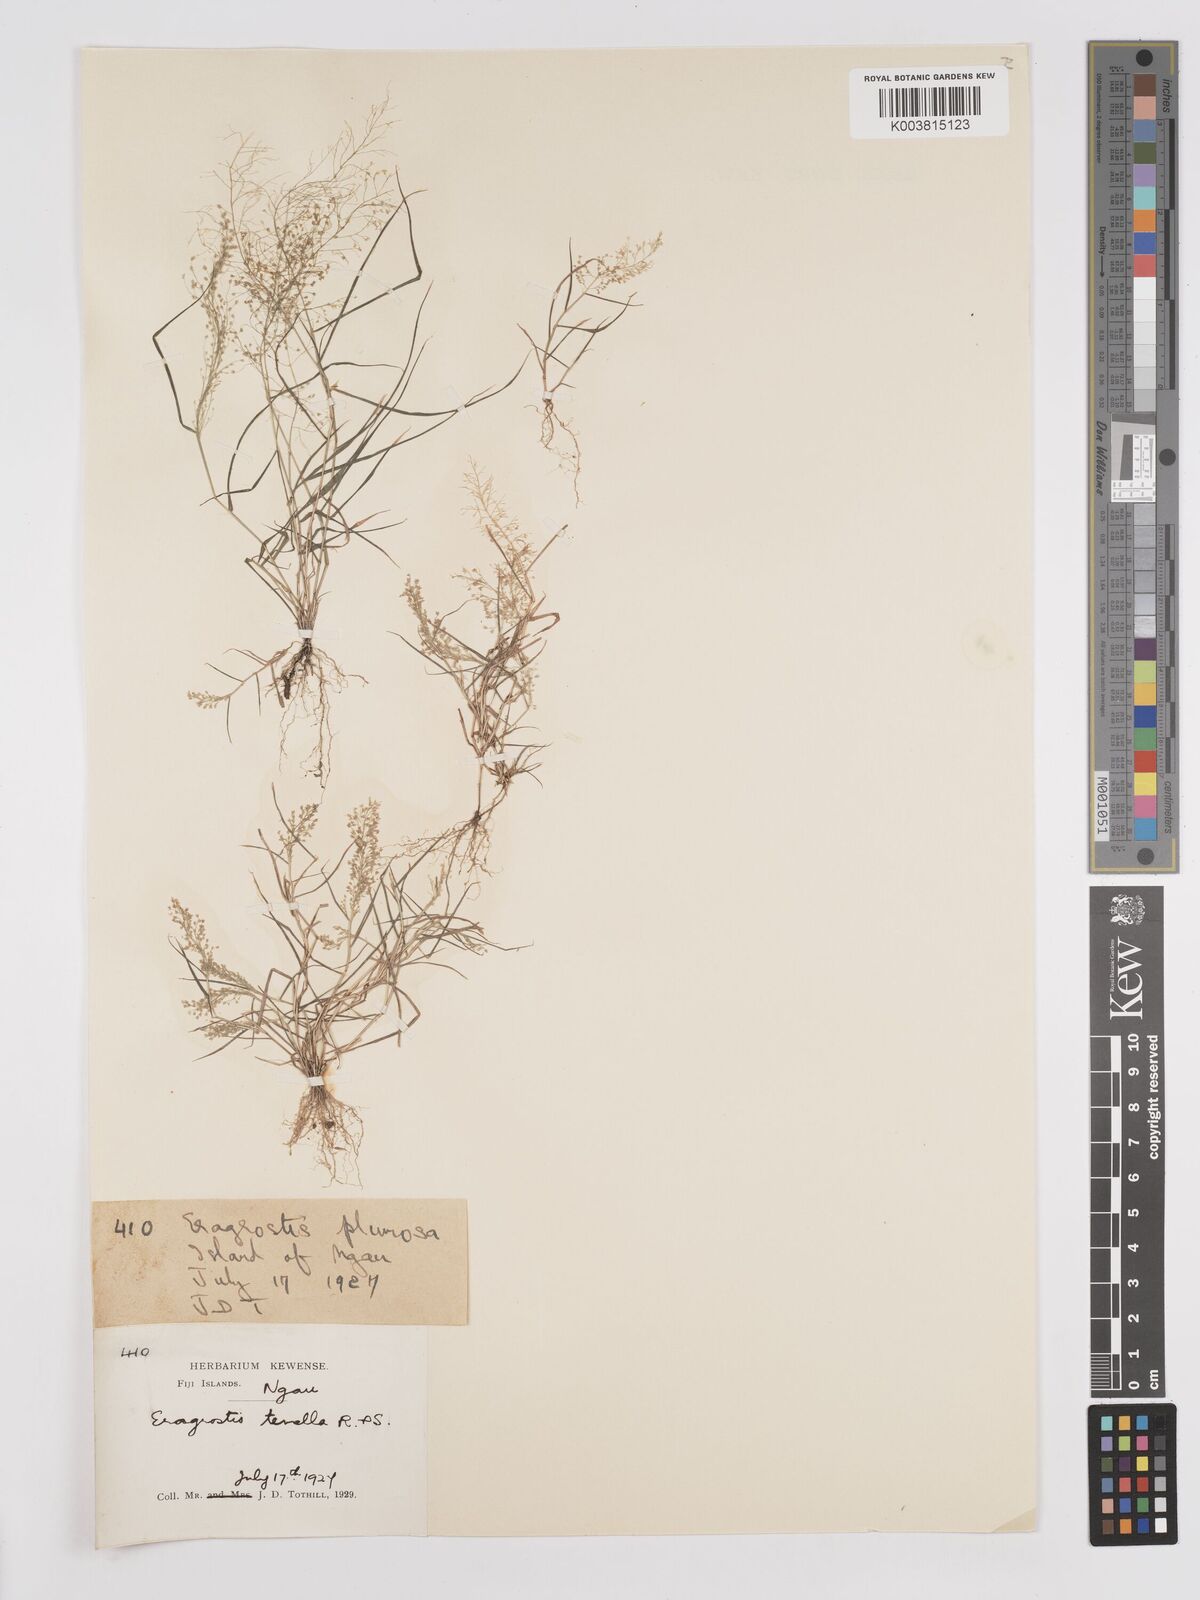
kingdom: Plantae
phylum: Tracheophyta
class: Liliopsida
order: Poales
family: Poaceae
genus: Eragrostis
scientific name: Eragrostis tenella
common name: Japanese lovegrass
